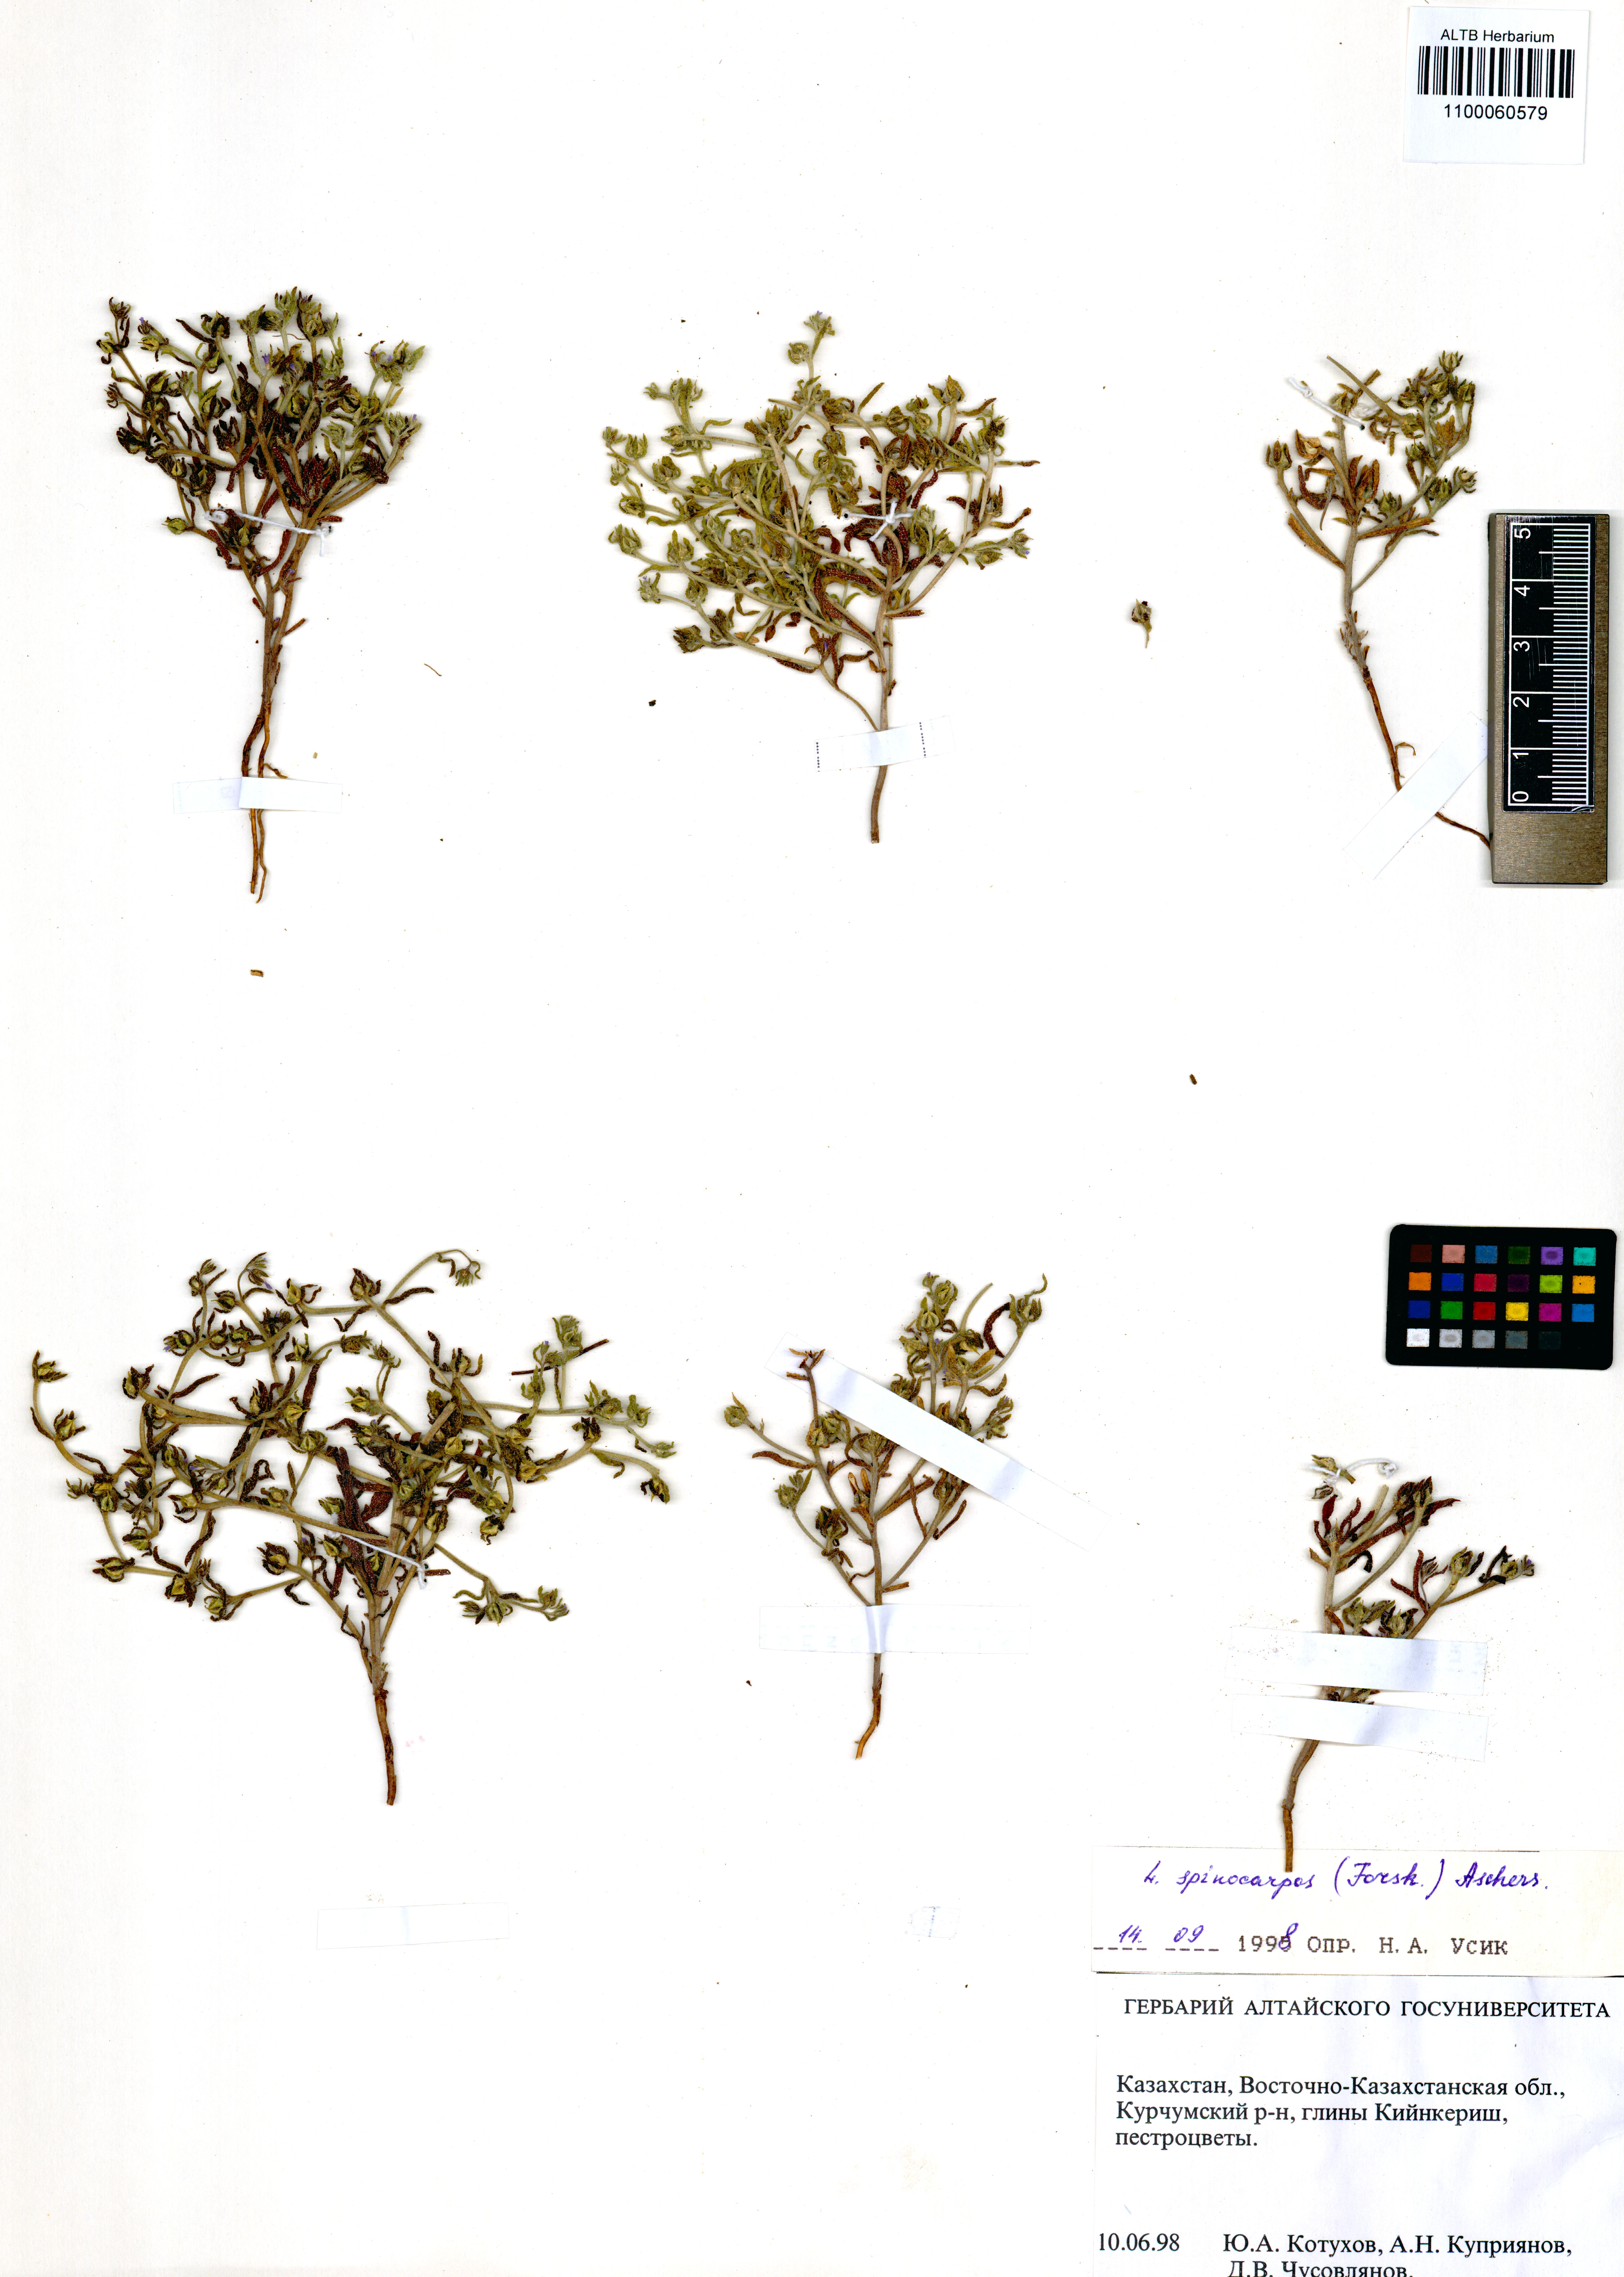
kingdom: Plantae
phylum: Tracheophyta
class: Magnoliopsida
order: Boraginales
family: Boraginaceae
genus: Lappula
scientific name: Lappula spinocarpos
